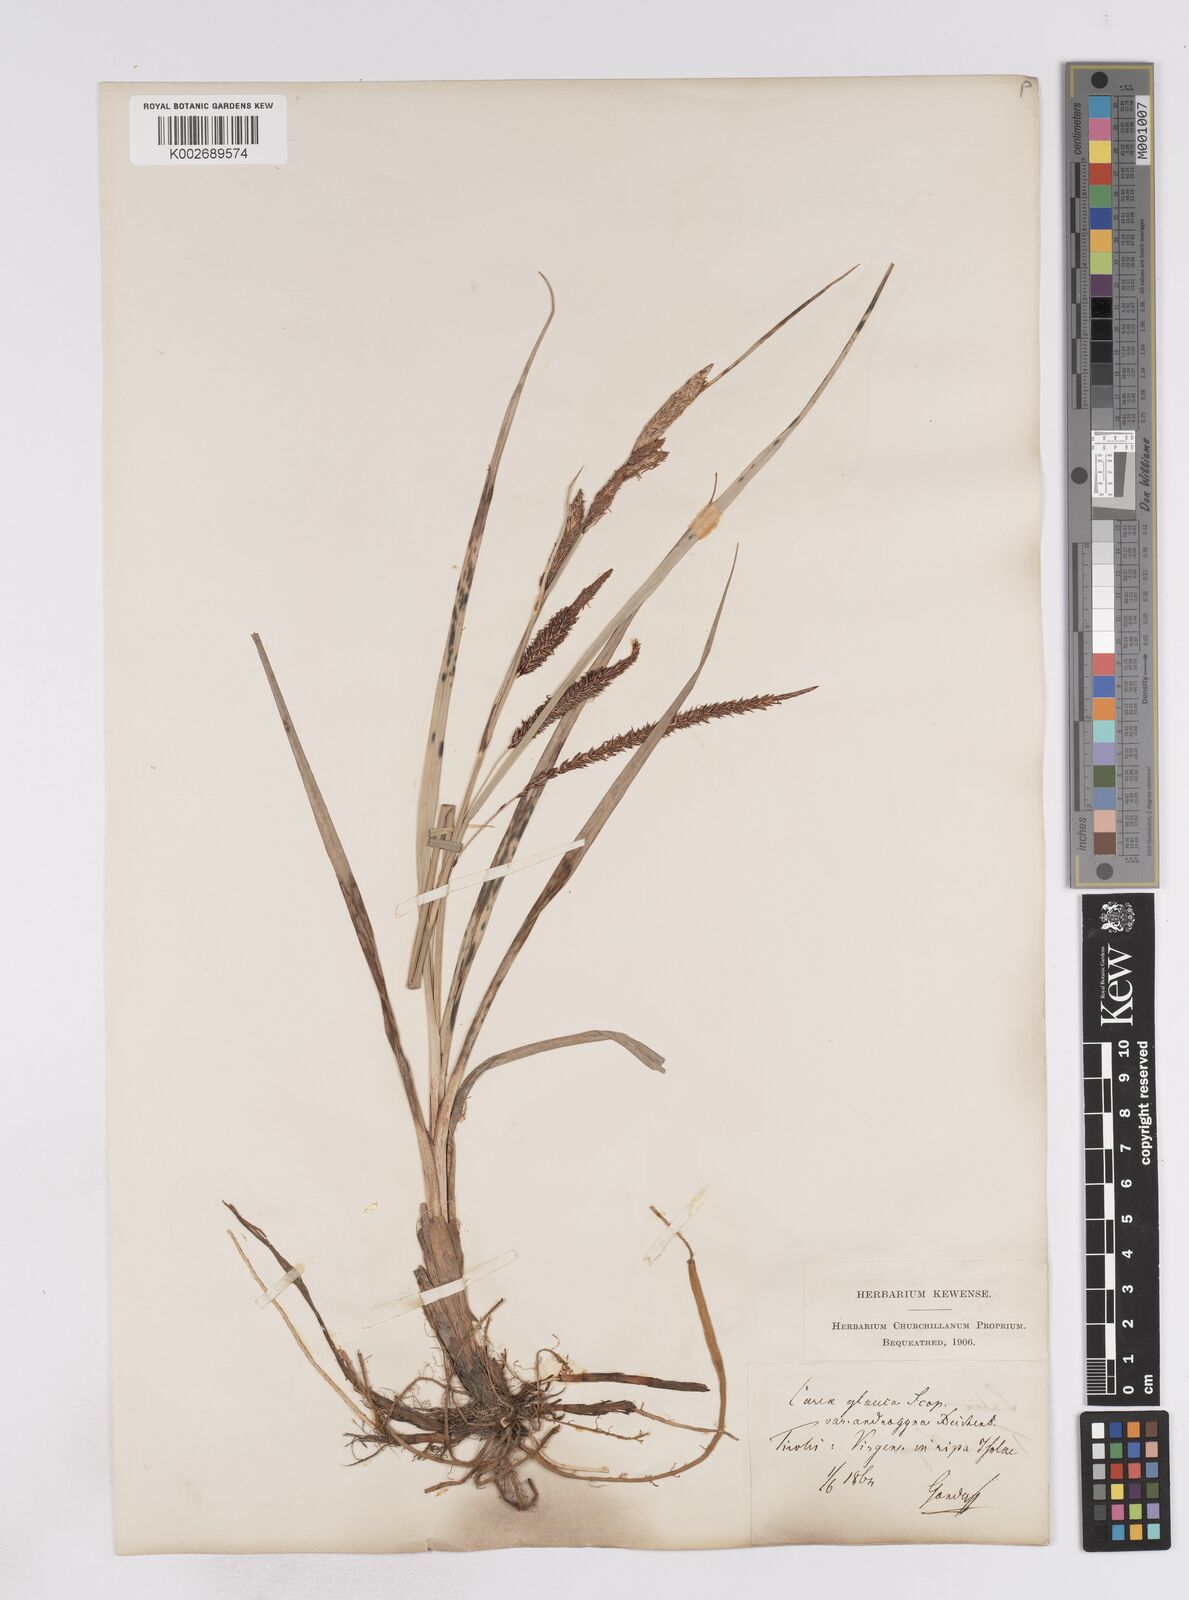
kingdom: Plantae
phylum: Tracheophyta
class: Liliopsida
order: Poales
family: Cyperaceae
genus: Carex
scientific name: Carex flacca
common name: Glaucous sedge
